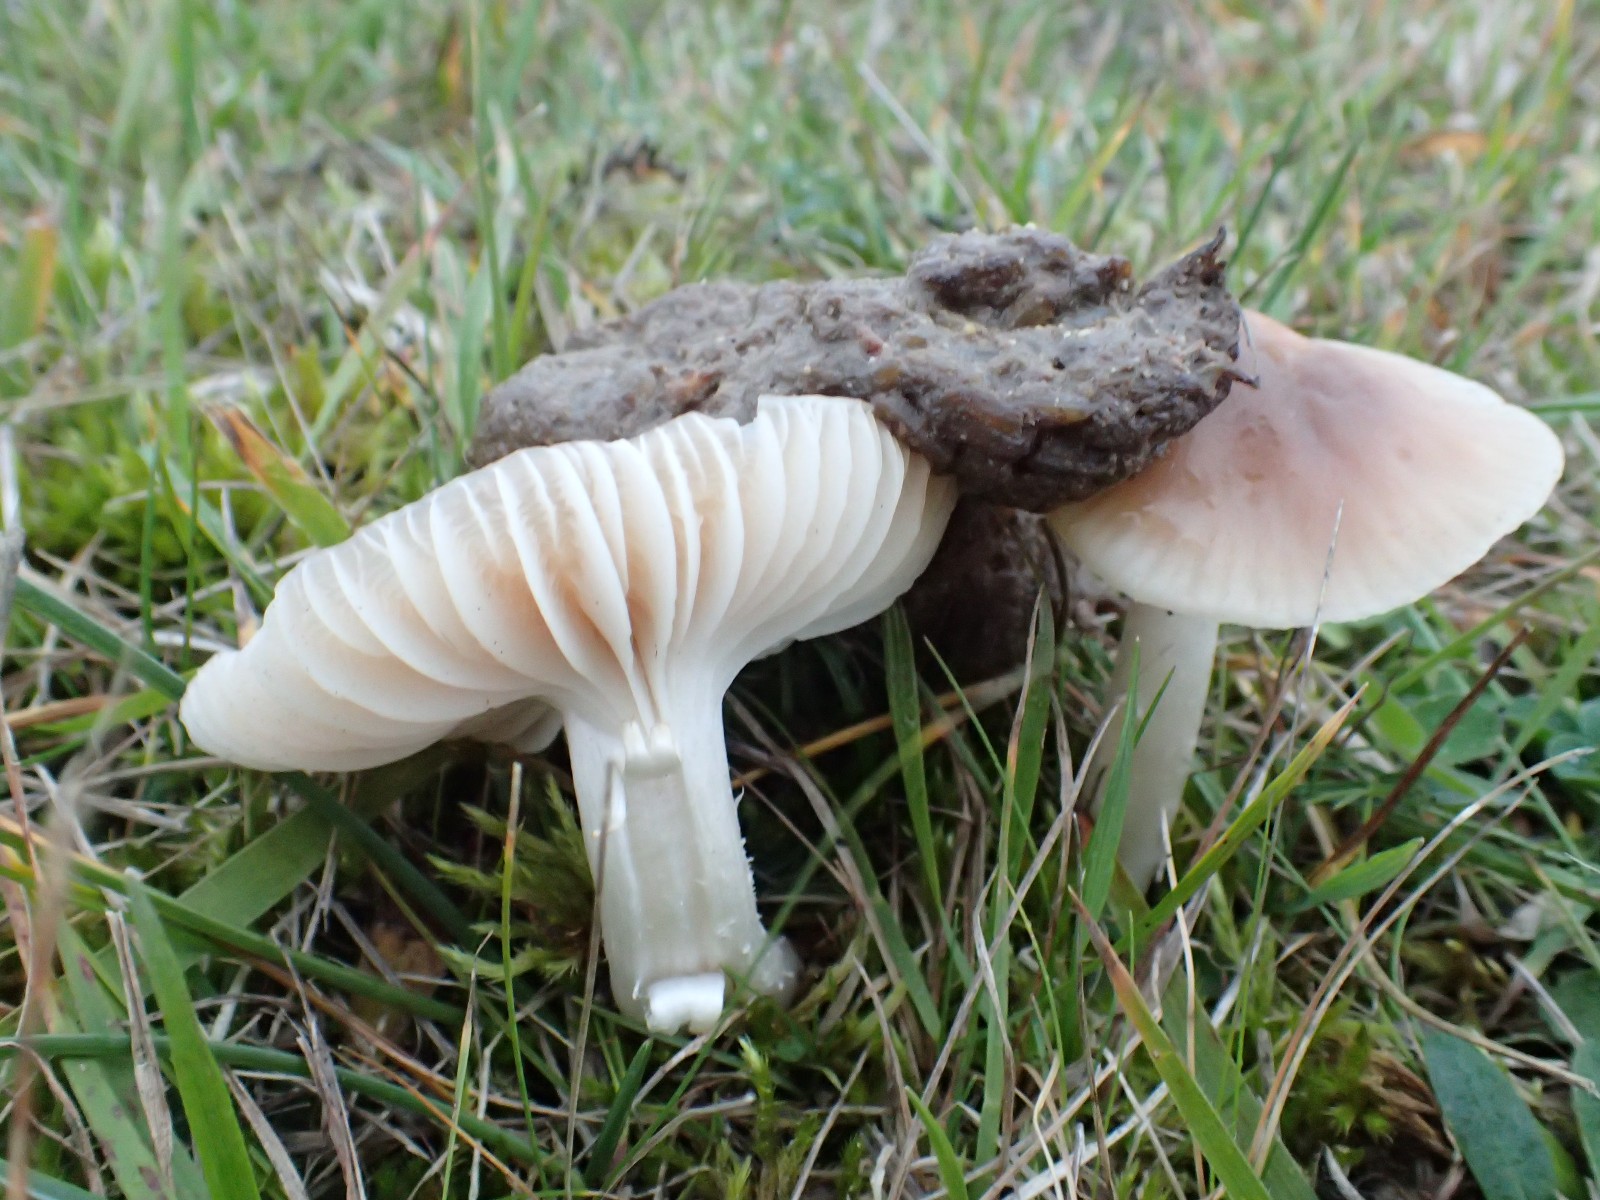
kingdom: Fungi
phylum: Basidiomycota
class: Agaricomycetes
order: Agaricales
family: Hygrophoraceae
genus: Cuphophyllus
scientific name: Cuphophyllus colemannianus
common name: rødbrun vokshat
